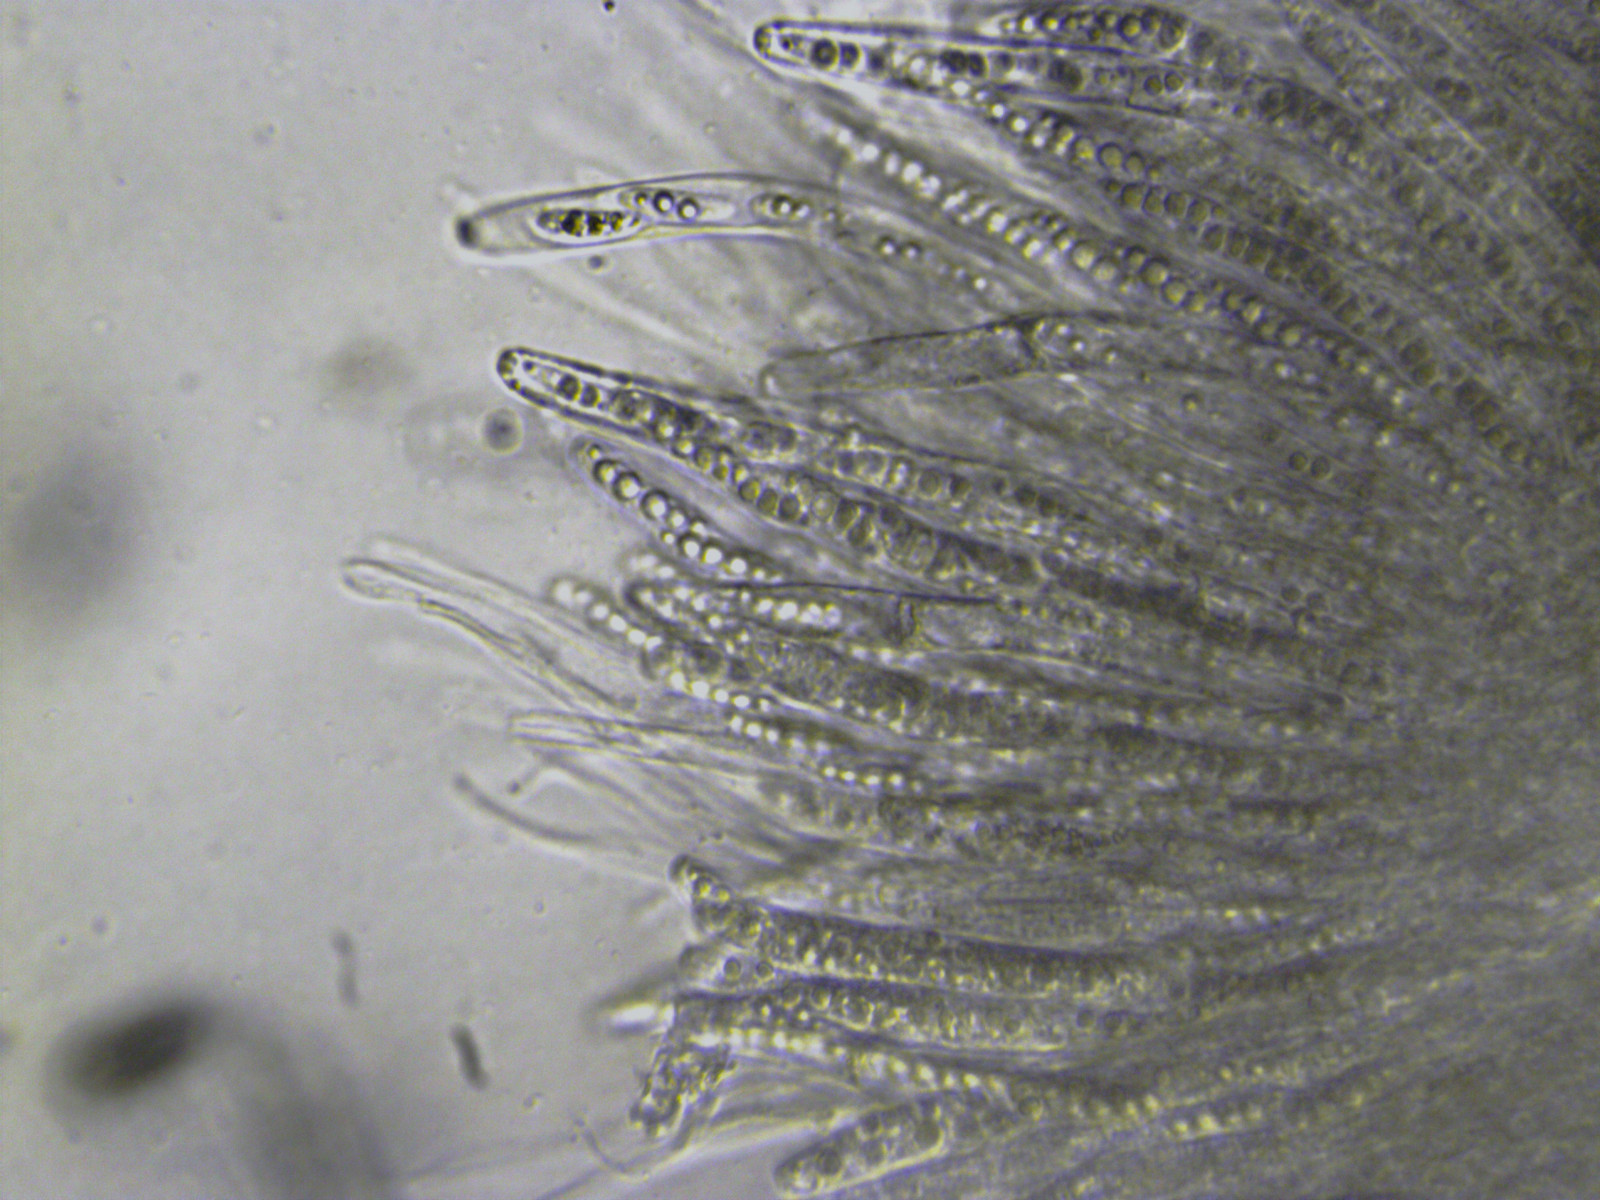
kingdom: Fungi
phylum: Ascomycota
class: Sordariomycetes
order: Chaetosphaeriales
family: Chaetosphaeriaceae
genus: Chaetosphaeria
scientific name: Chaetosphaeria gallica
